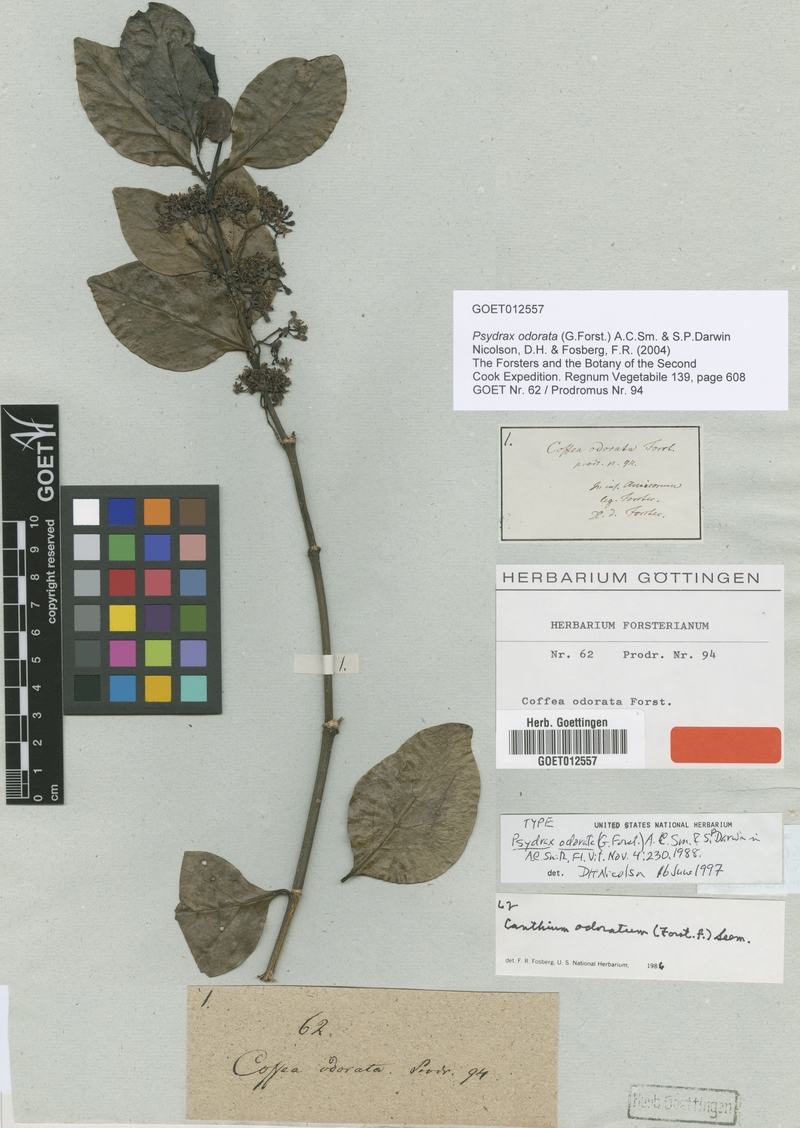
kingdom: Plantae
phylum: Tracheophyta
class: Magnoliopsida
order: Gentianales
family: Rubiaceae
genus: Psydrax
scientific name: Psydrax odoratus
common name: Alahe'e
